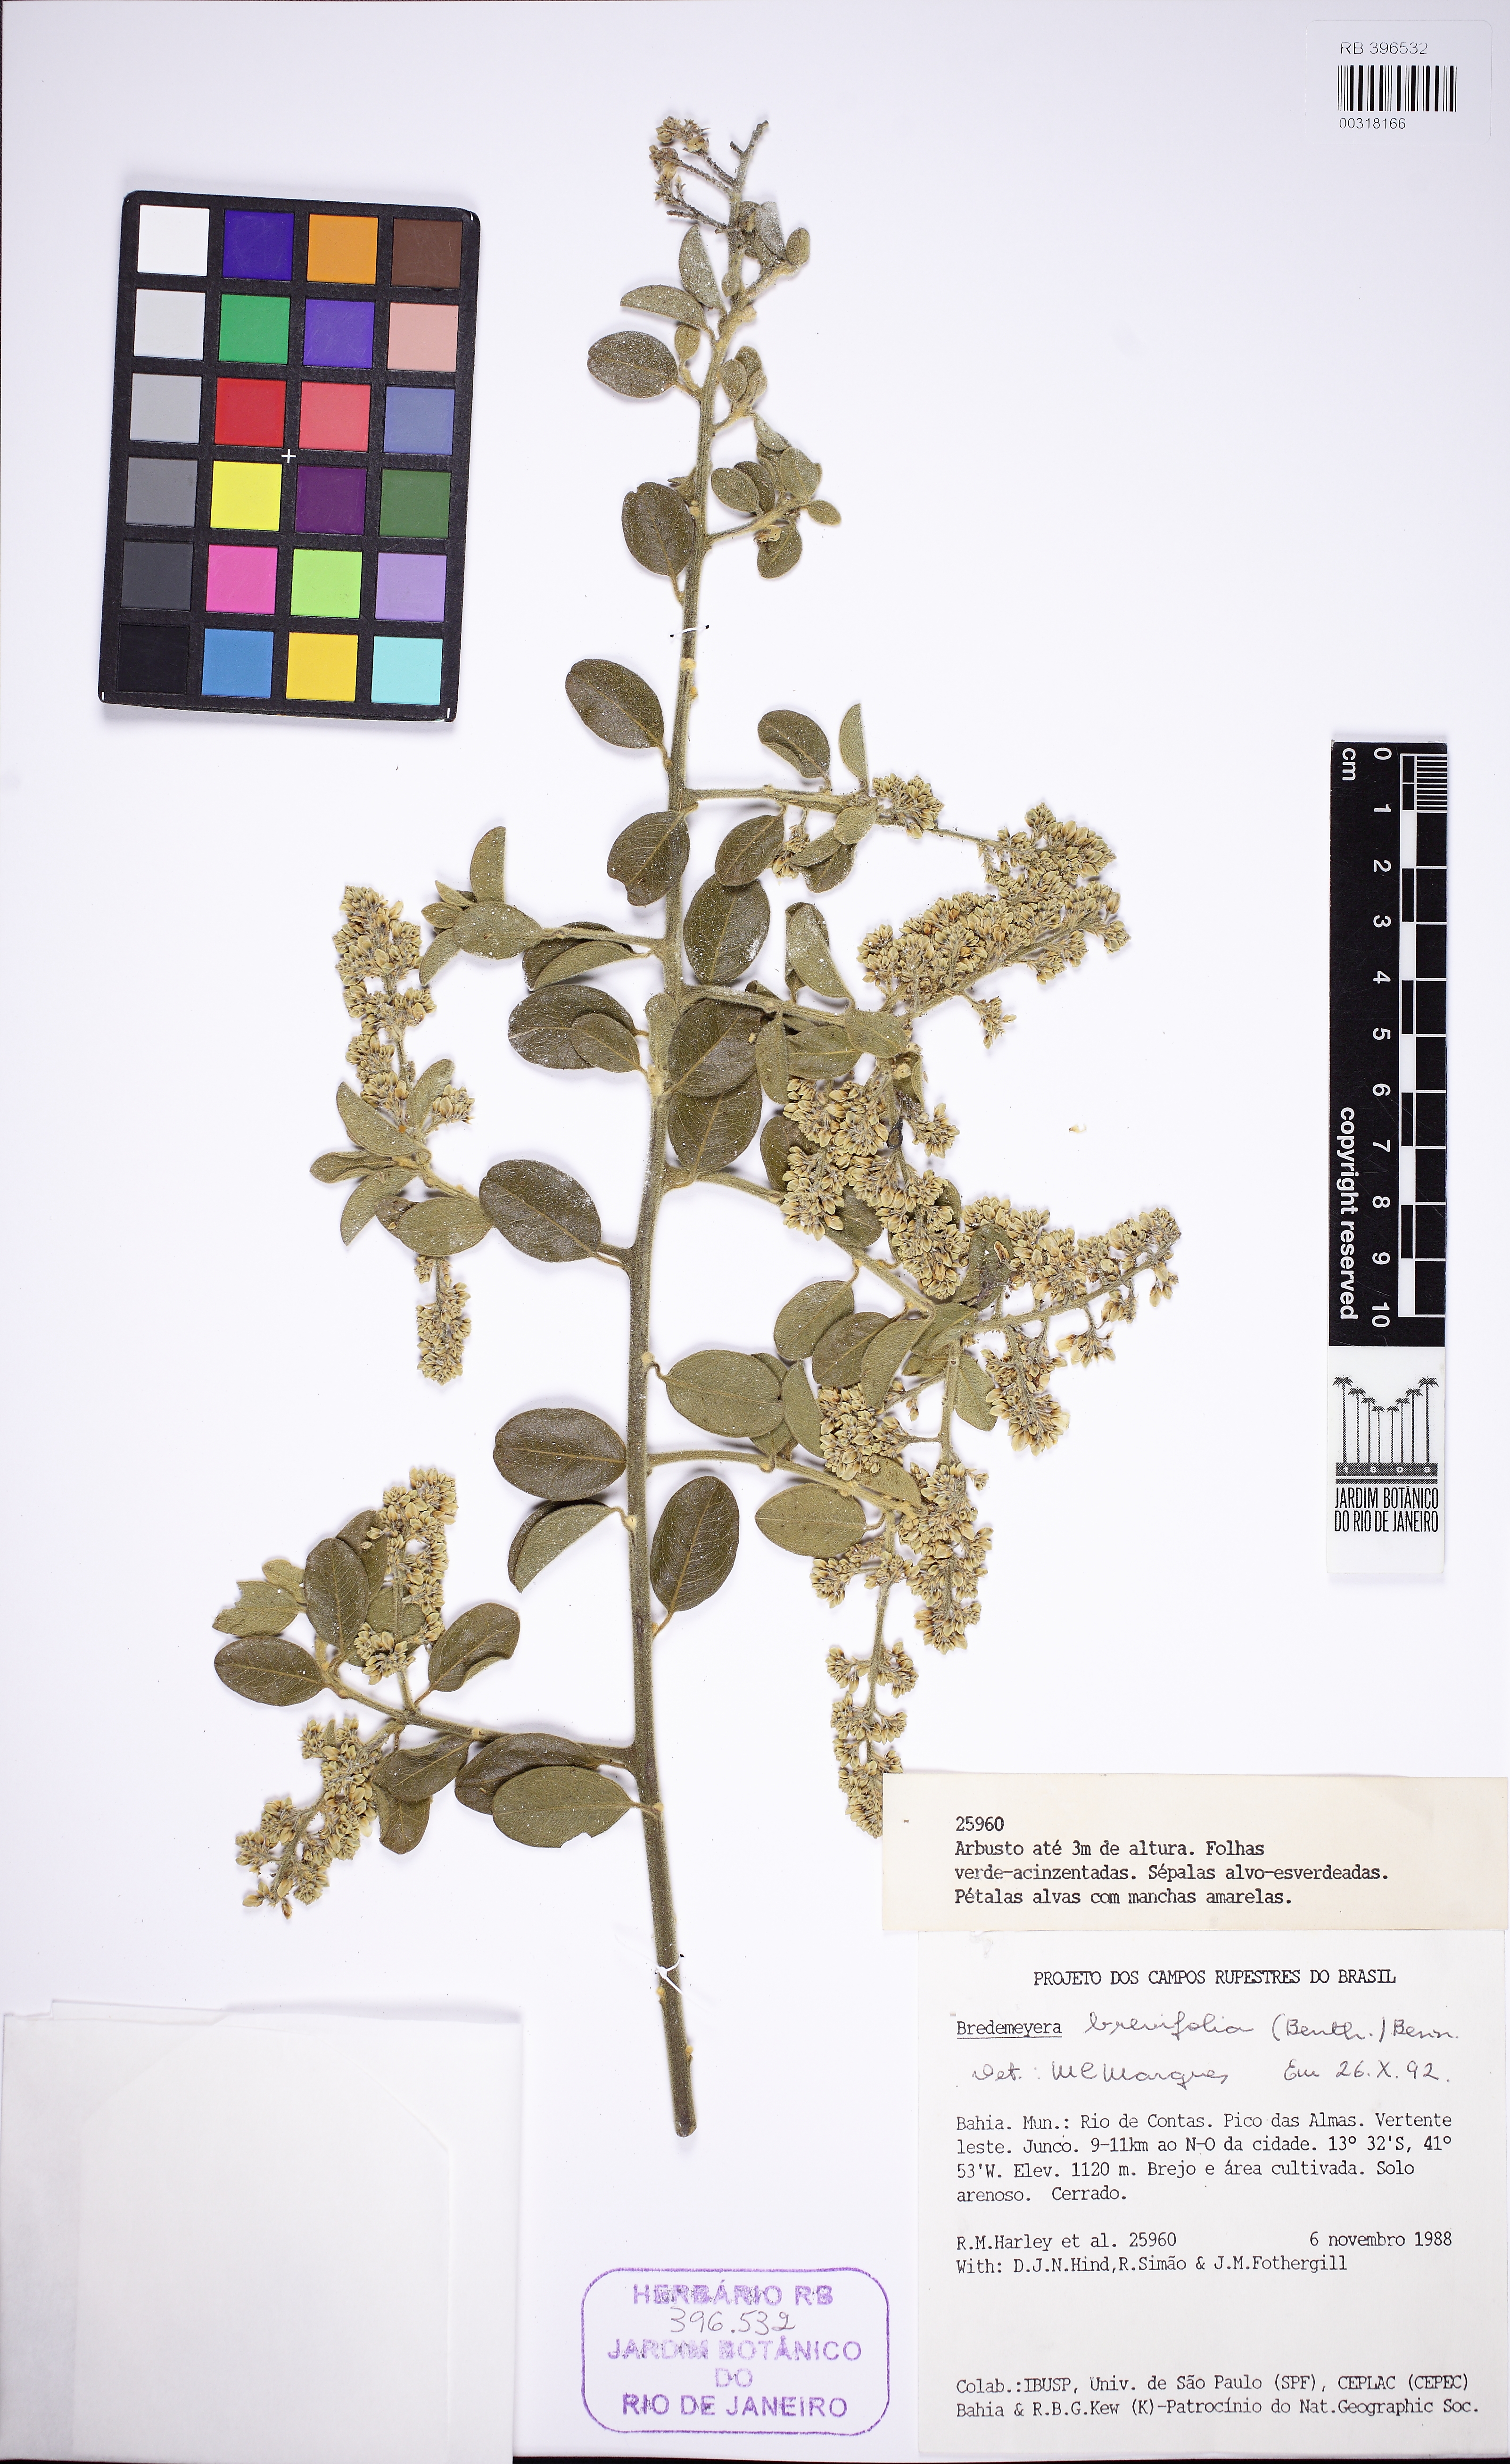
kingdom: Plantae
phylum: Tracheophyta
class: Magnoliopsida
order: Fabales
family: Polygalaceae
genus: Bredemeyera
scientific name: Bredemeyera brevifolia
